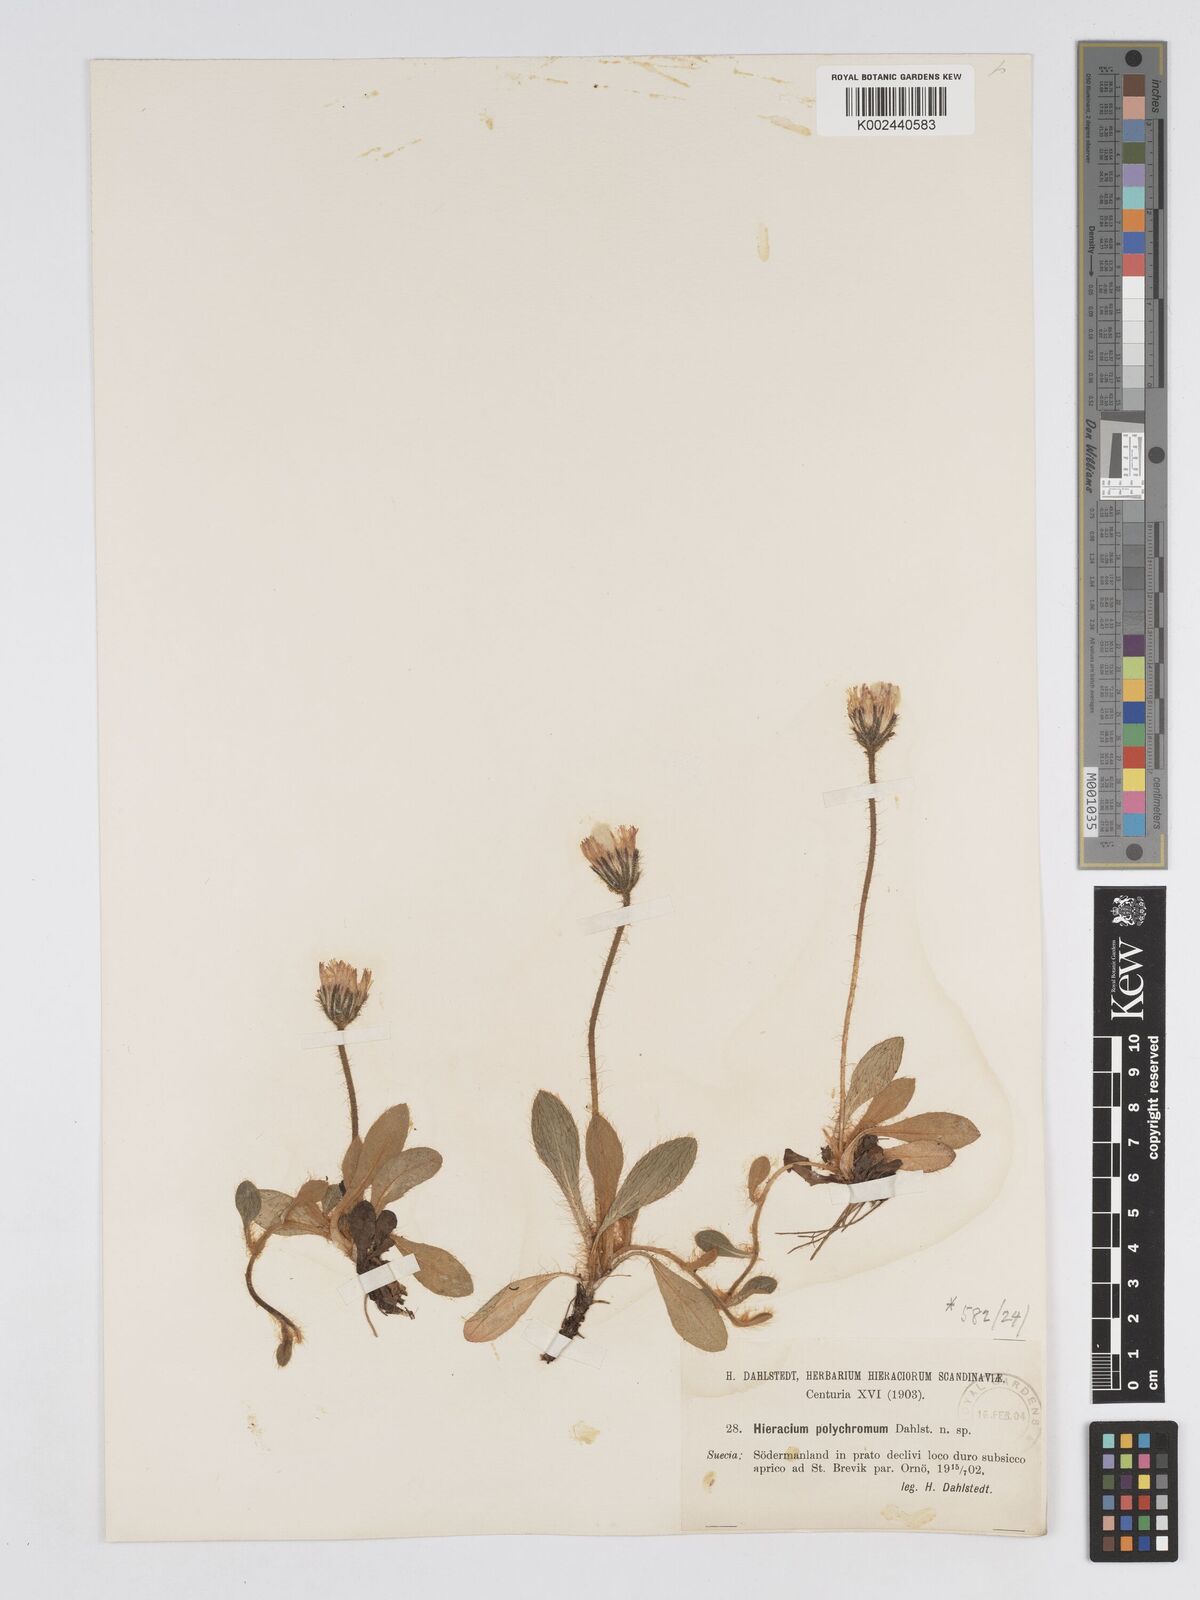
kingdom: Plantae
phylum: Tracheophyta
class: Magnoliopsida
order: Asterales
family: Asteraceae
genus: Pilosella
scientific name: Pilosella longisquama
